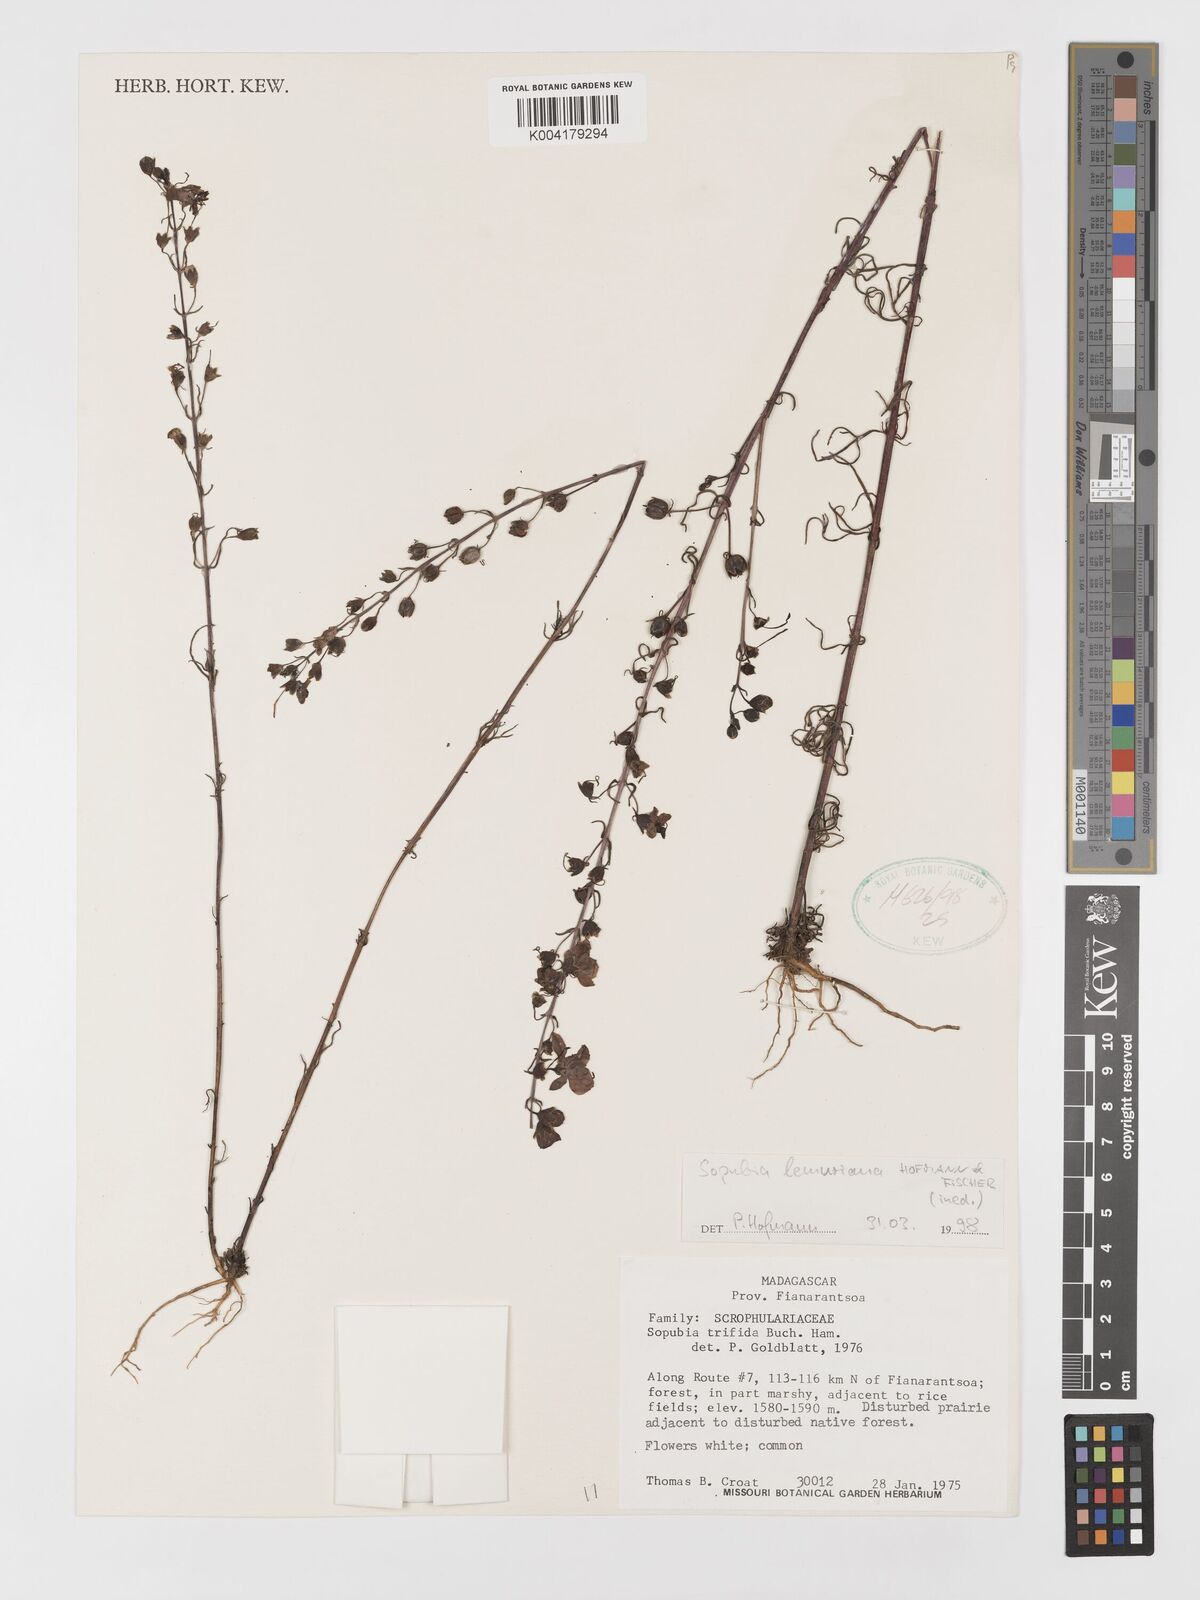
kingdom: Plantae
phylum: Tracheophyta
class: Magnoliopsida
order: Lamiales
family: Orobanchaceae
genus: Sopubia
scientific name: Sopubia lemuriana
